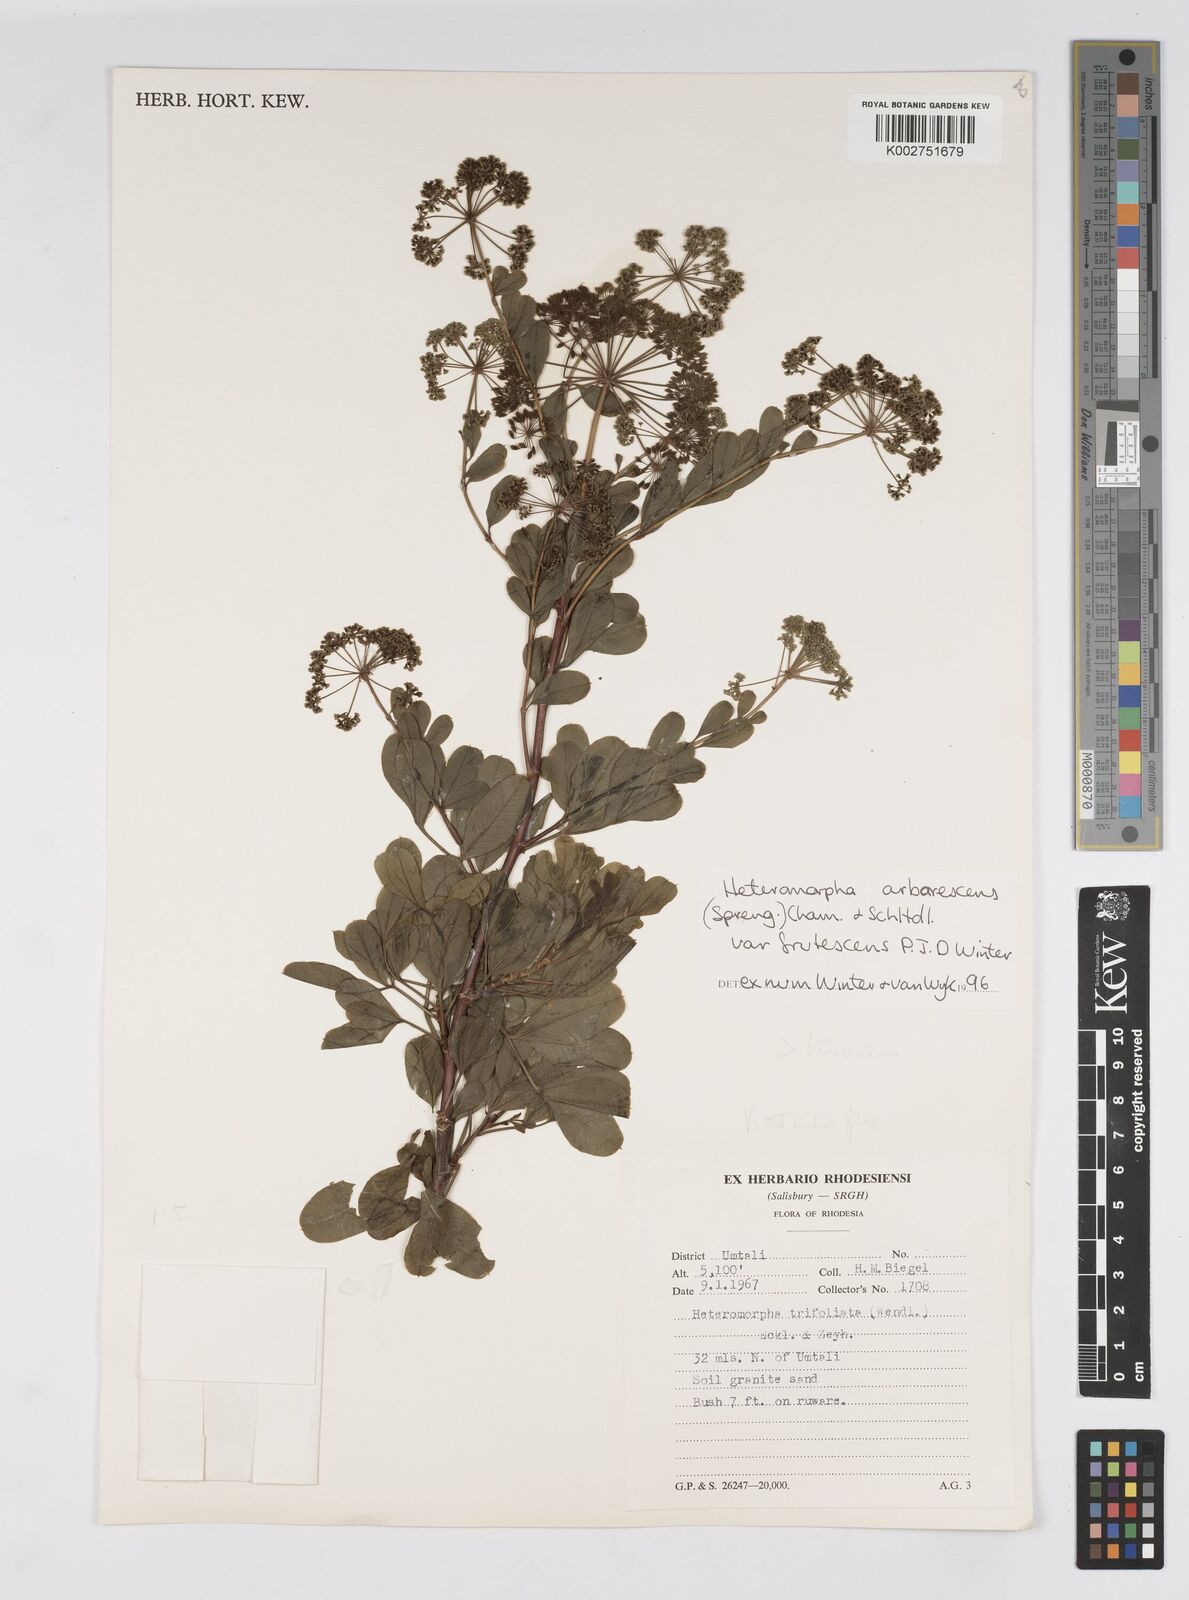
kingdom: Plantae
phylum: Tracheophyta
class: Magnoliopsida
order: Apiales
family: Apiaceae
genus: Heteromorpha
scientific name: Heteromorpha arborescens
